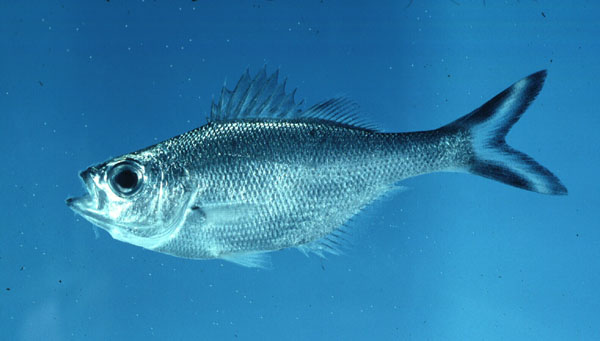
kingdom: Animalia
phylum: Chordata
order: Perciformes
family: Kuhliidae
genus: Kuhlia
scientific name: Kuhlia caudavittata
